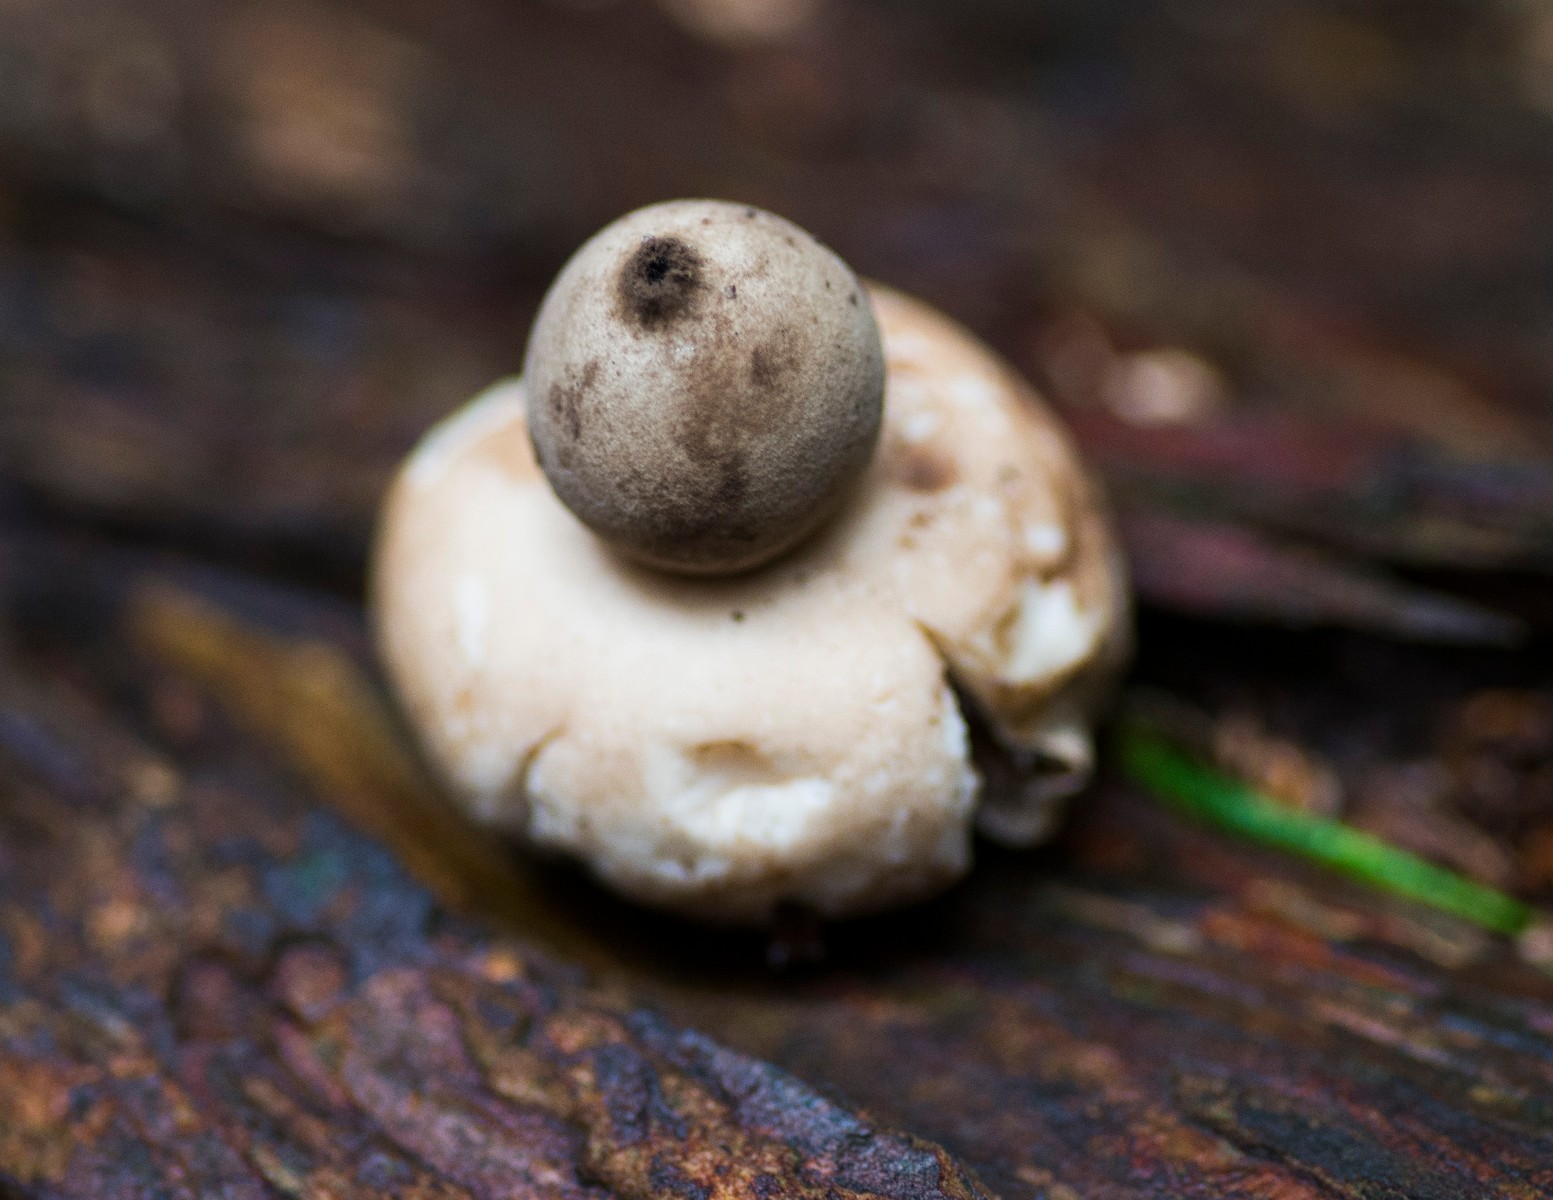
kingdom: Fungi
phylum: Basidiomycota
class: Agaricomycetes
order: Geastrales
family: Geastraceae
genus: Geastrum
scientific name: Geastrum fimbriatum
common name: frynset stjernebold
